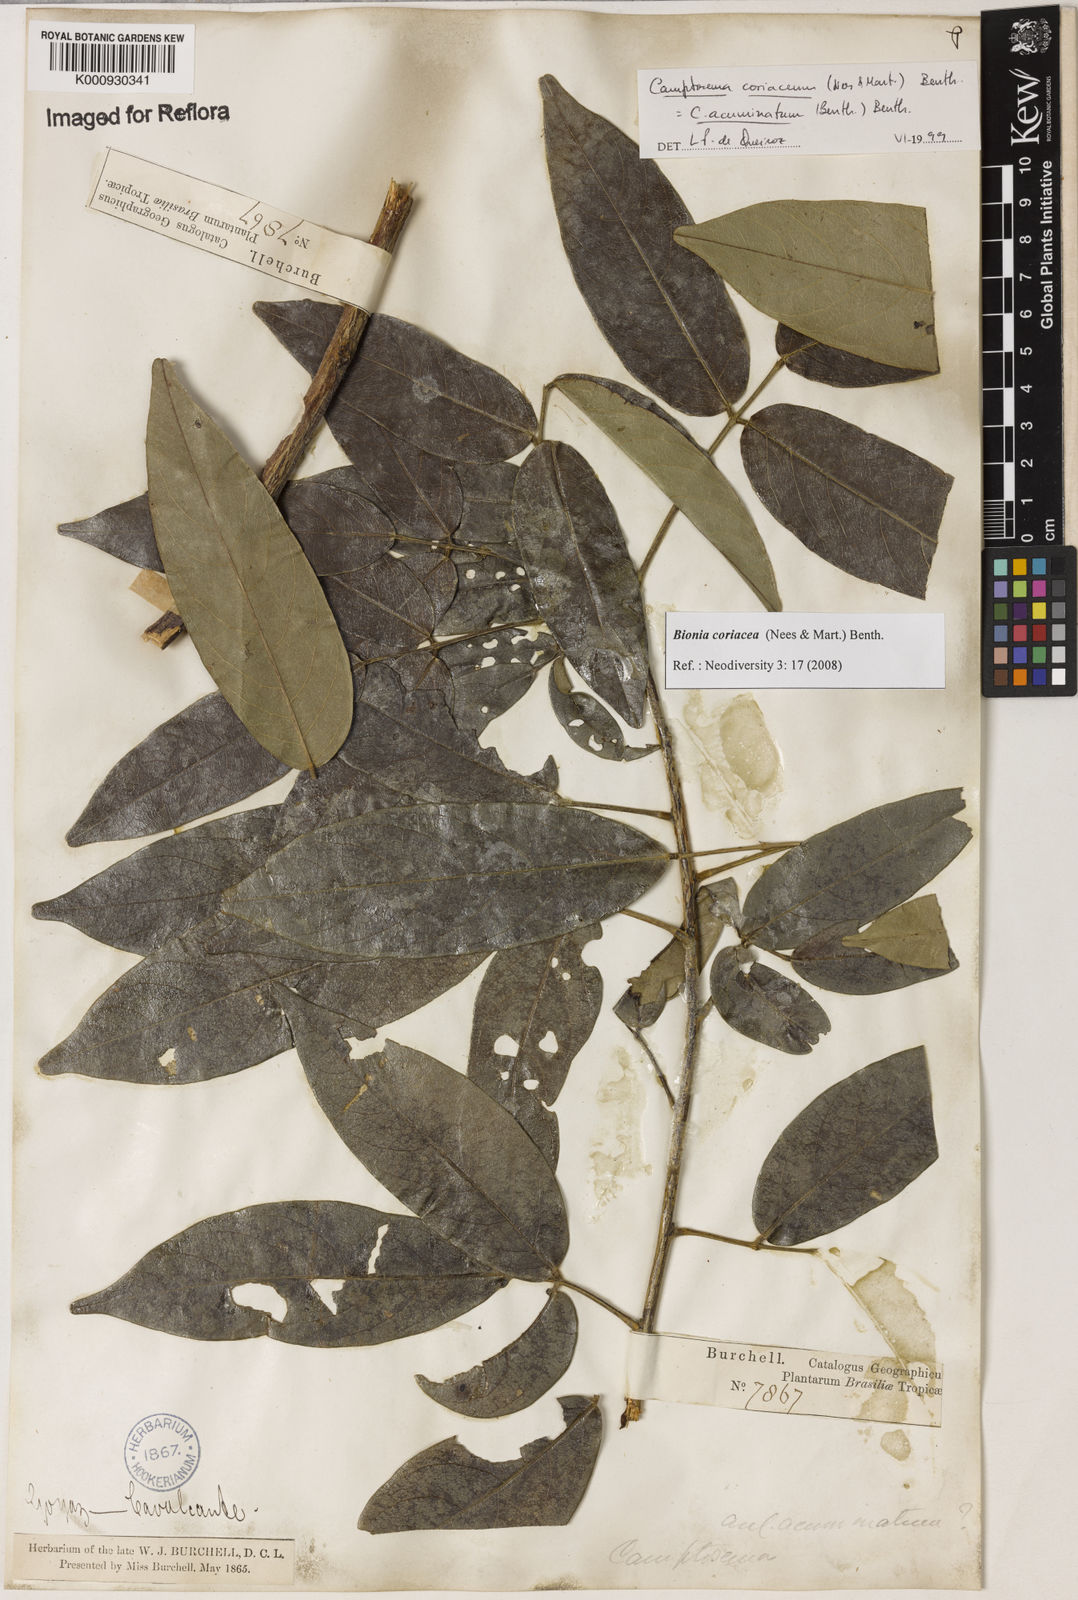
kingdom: Plantae
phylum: Tracheophyta
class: Magnoliopsida
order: Fabales
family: Fabaceae
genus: Camptosema
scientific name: Camptosema coriaceum
